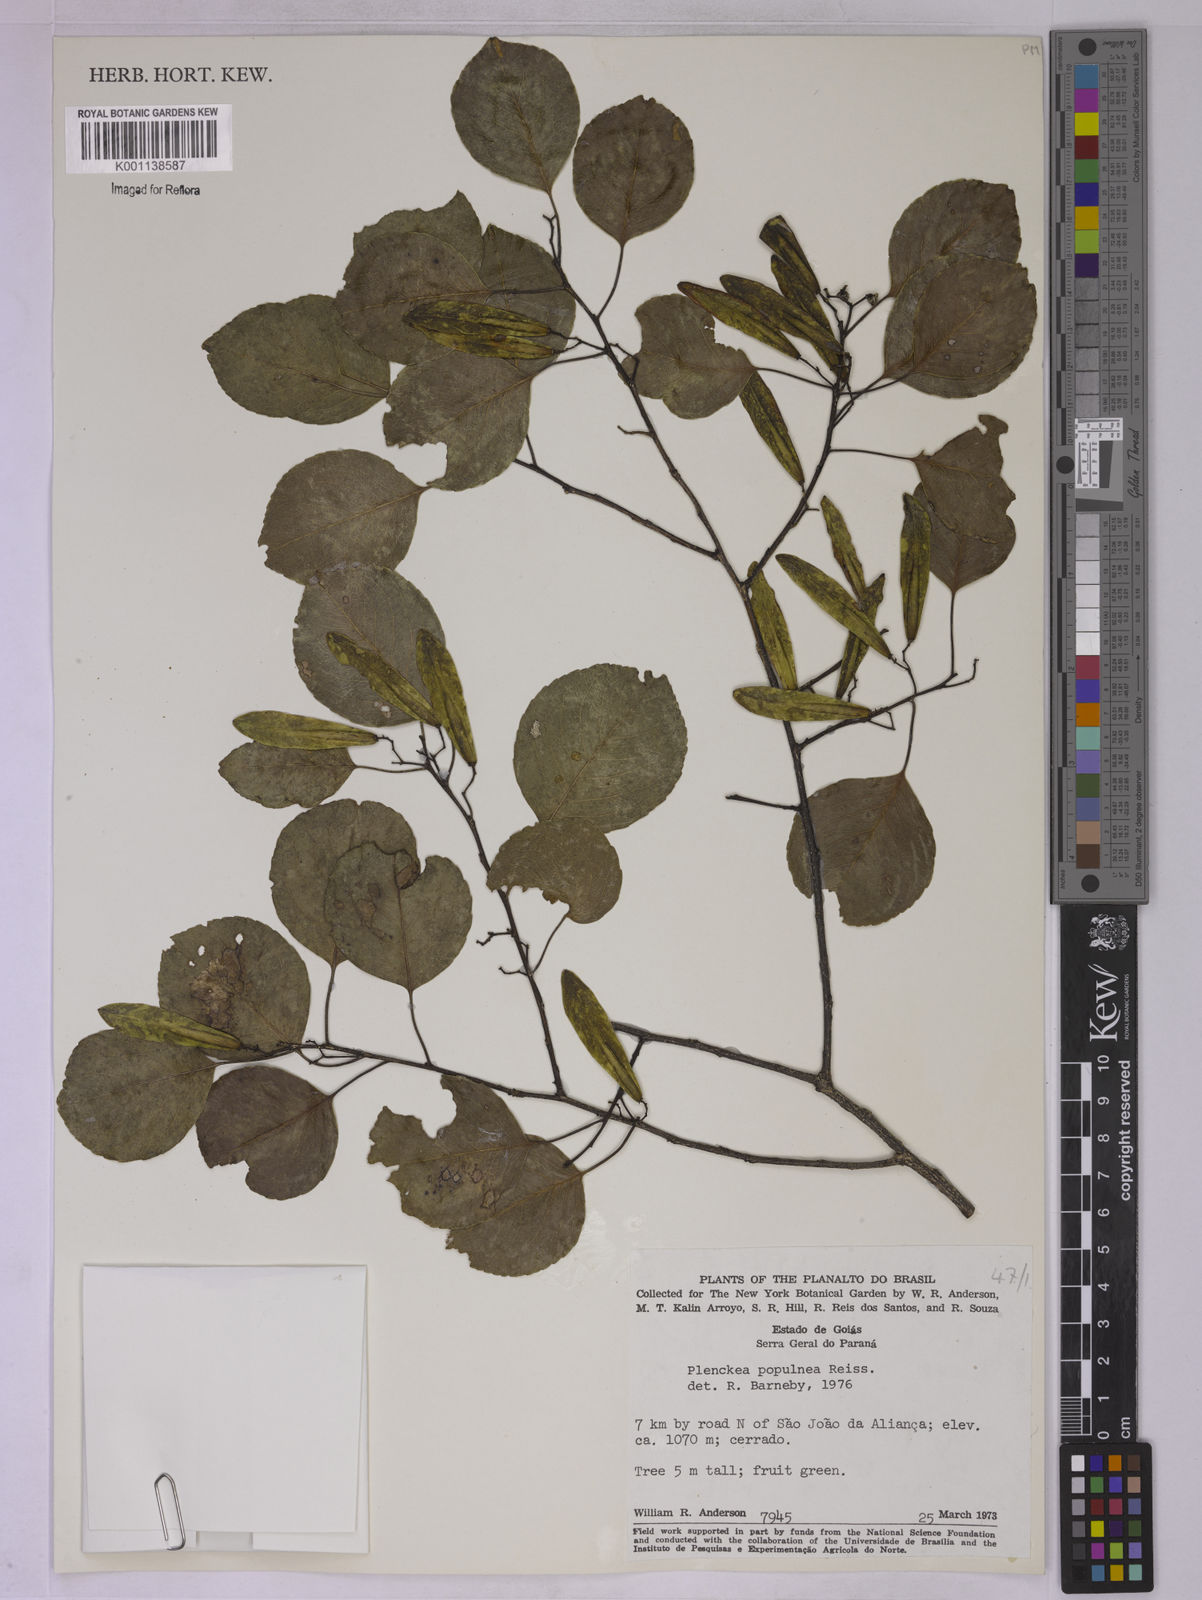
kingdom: Plantae
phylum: Tracheophyta
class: Magnoliopsida
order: Celastrales
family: Celastraceae
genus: Plenckia
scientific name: Plenckia populnea
